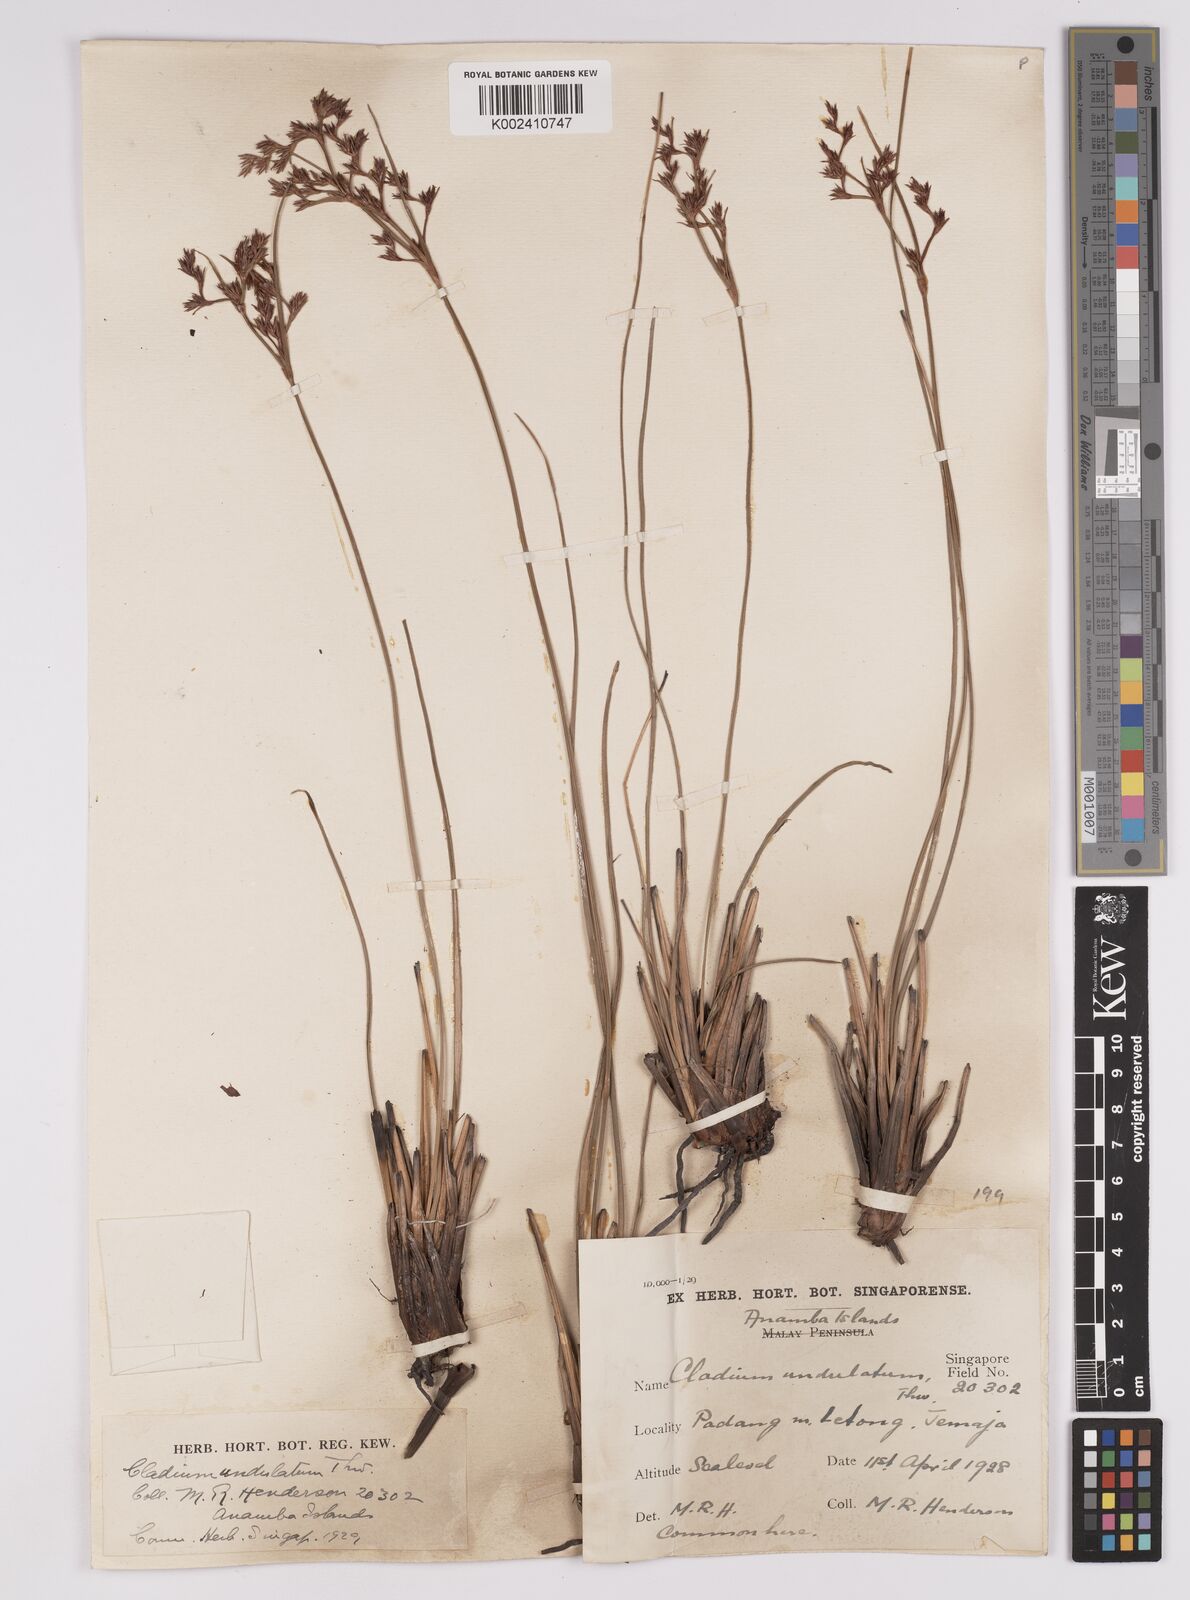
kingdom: Plantae
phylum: Tracheophyta
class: Liliopsida
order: Poales
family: Cyperaceae
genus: Anthelepis
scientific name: Anthelepis undulata
